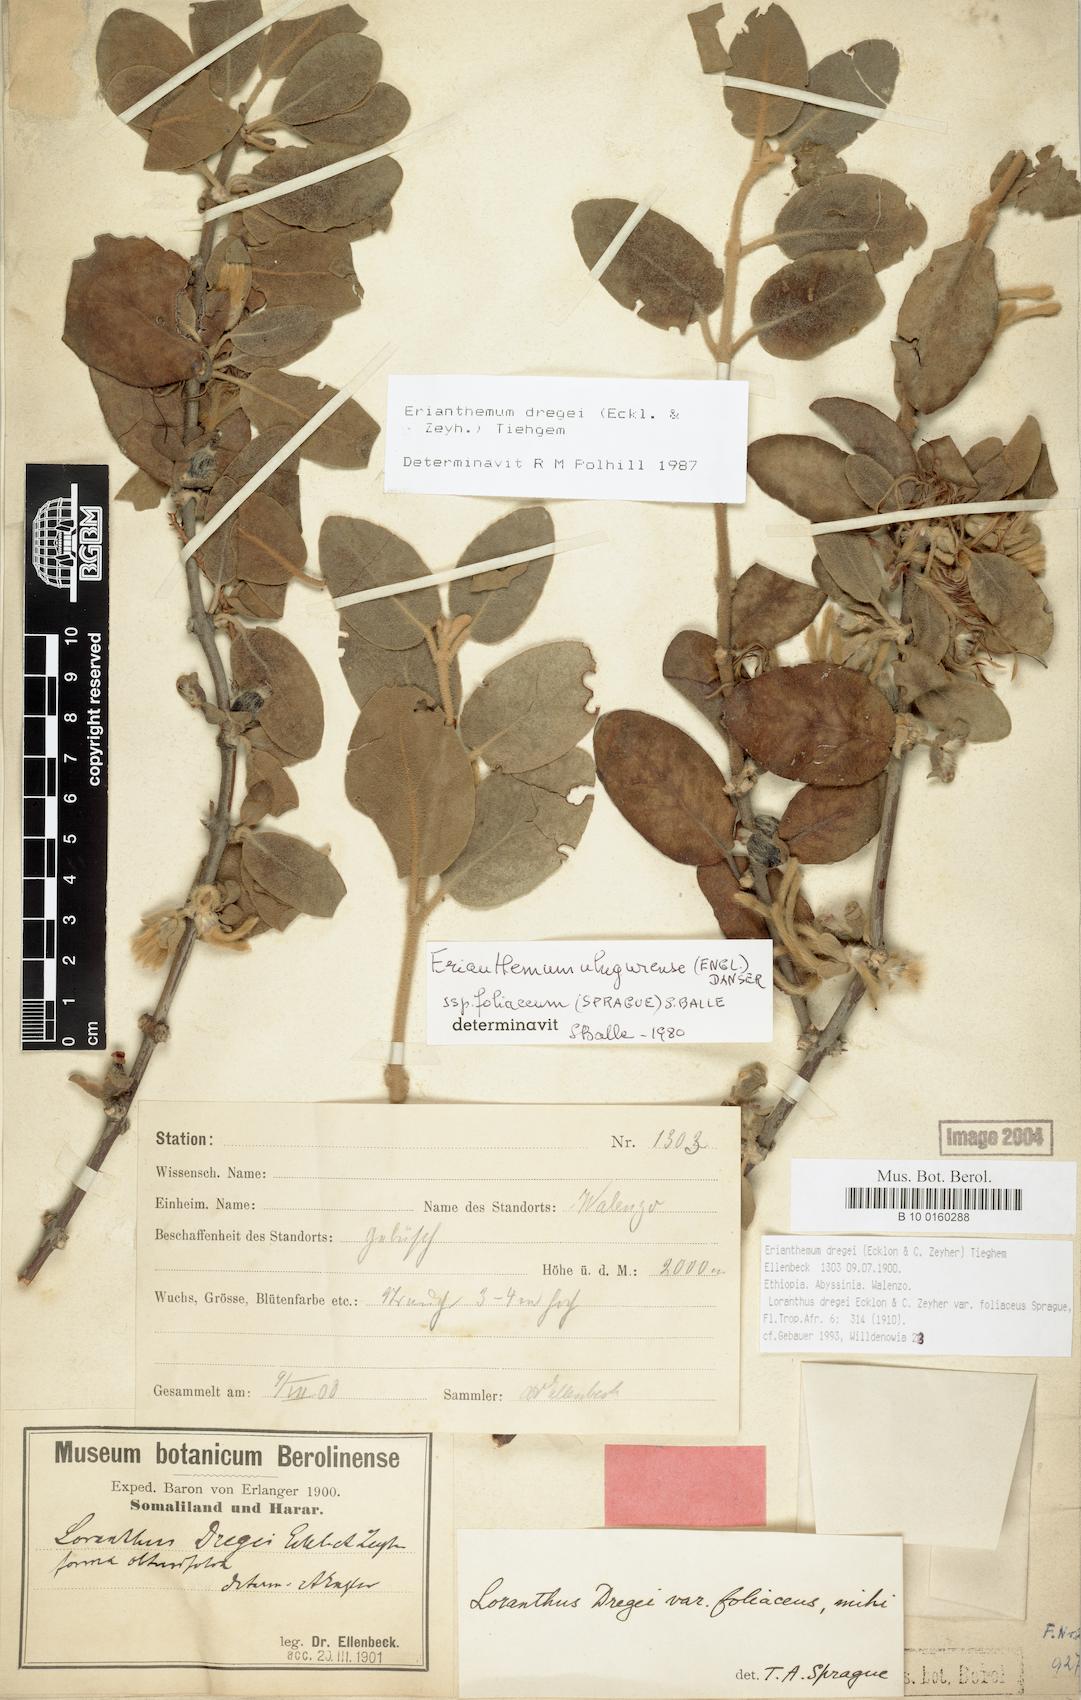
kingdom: Plantae
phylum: Tracheophyta
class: Magnoliopsida
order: Santalales
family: Loranthaceae
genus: Erianthemum
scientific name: Erianthemum dregei
